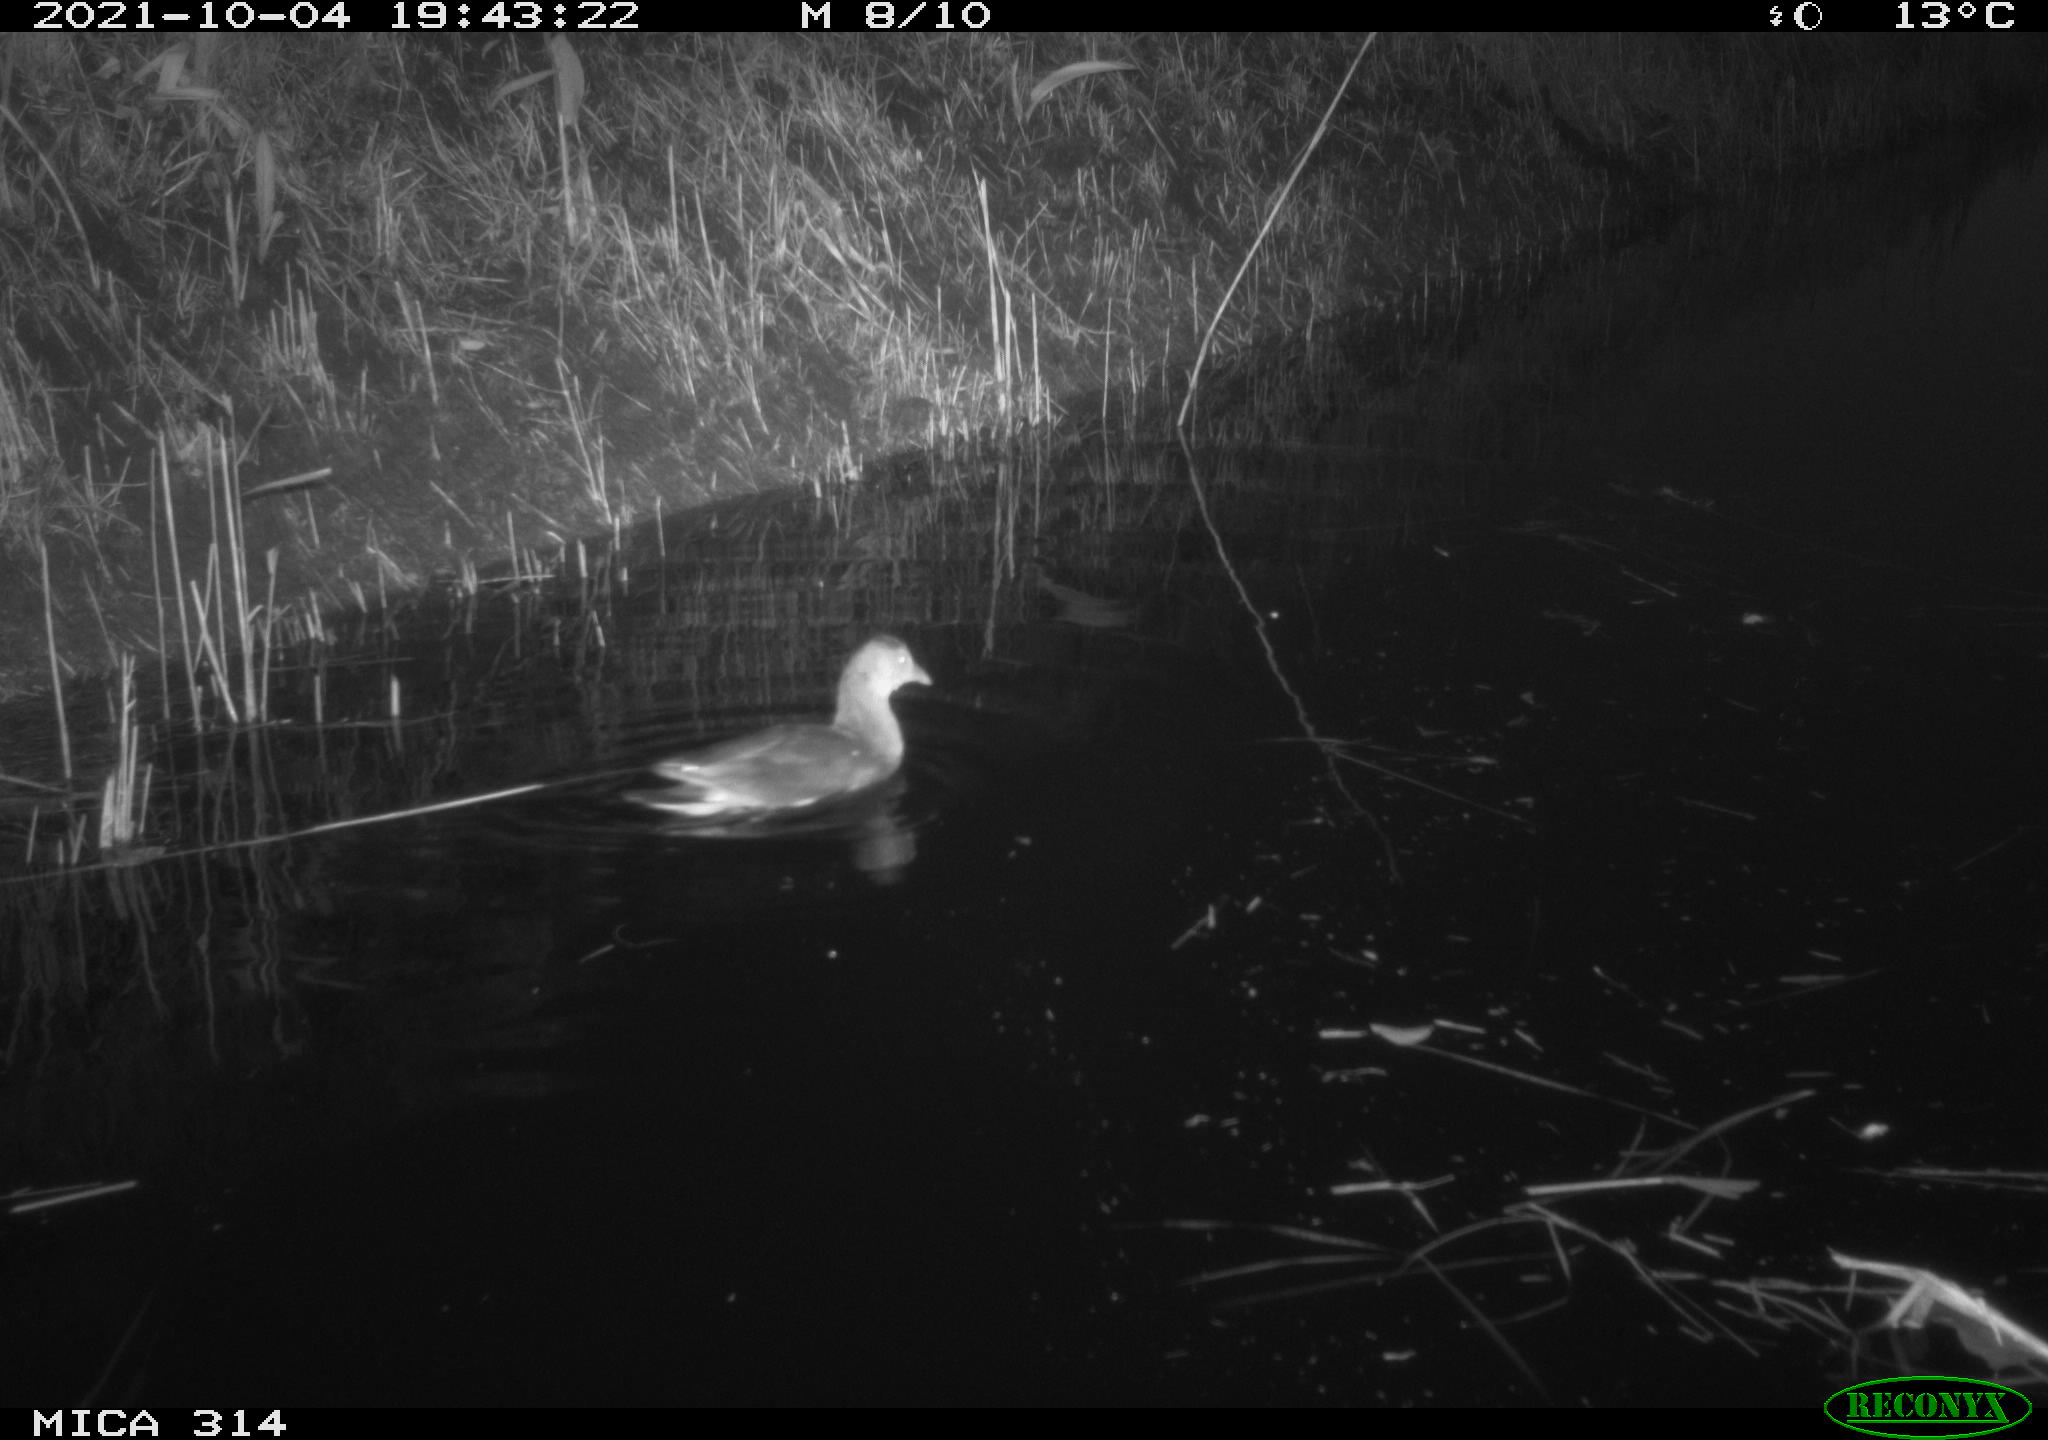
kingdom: Animalia
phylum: Chordata
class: Aves
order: Gruiformes
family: Rallidae
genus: Gallinula
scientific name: Gallinula chloropus
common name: Common moorhen
